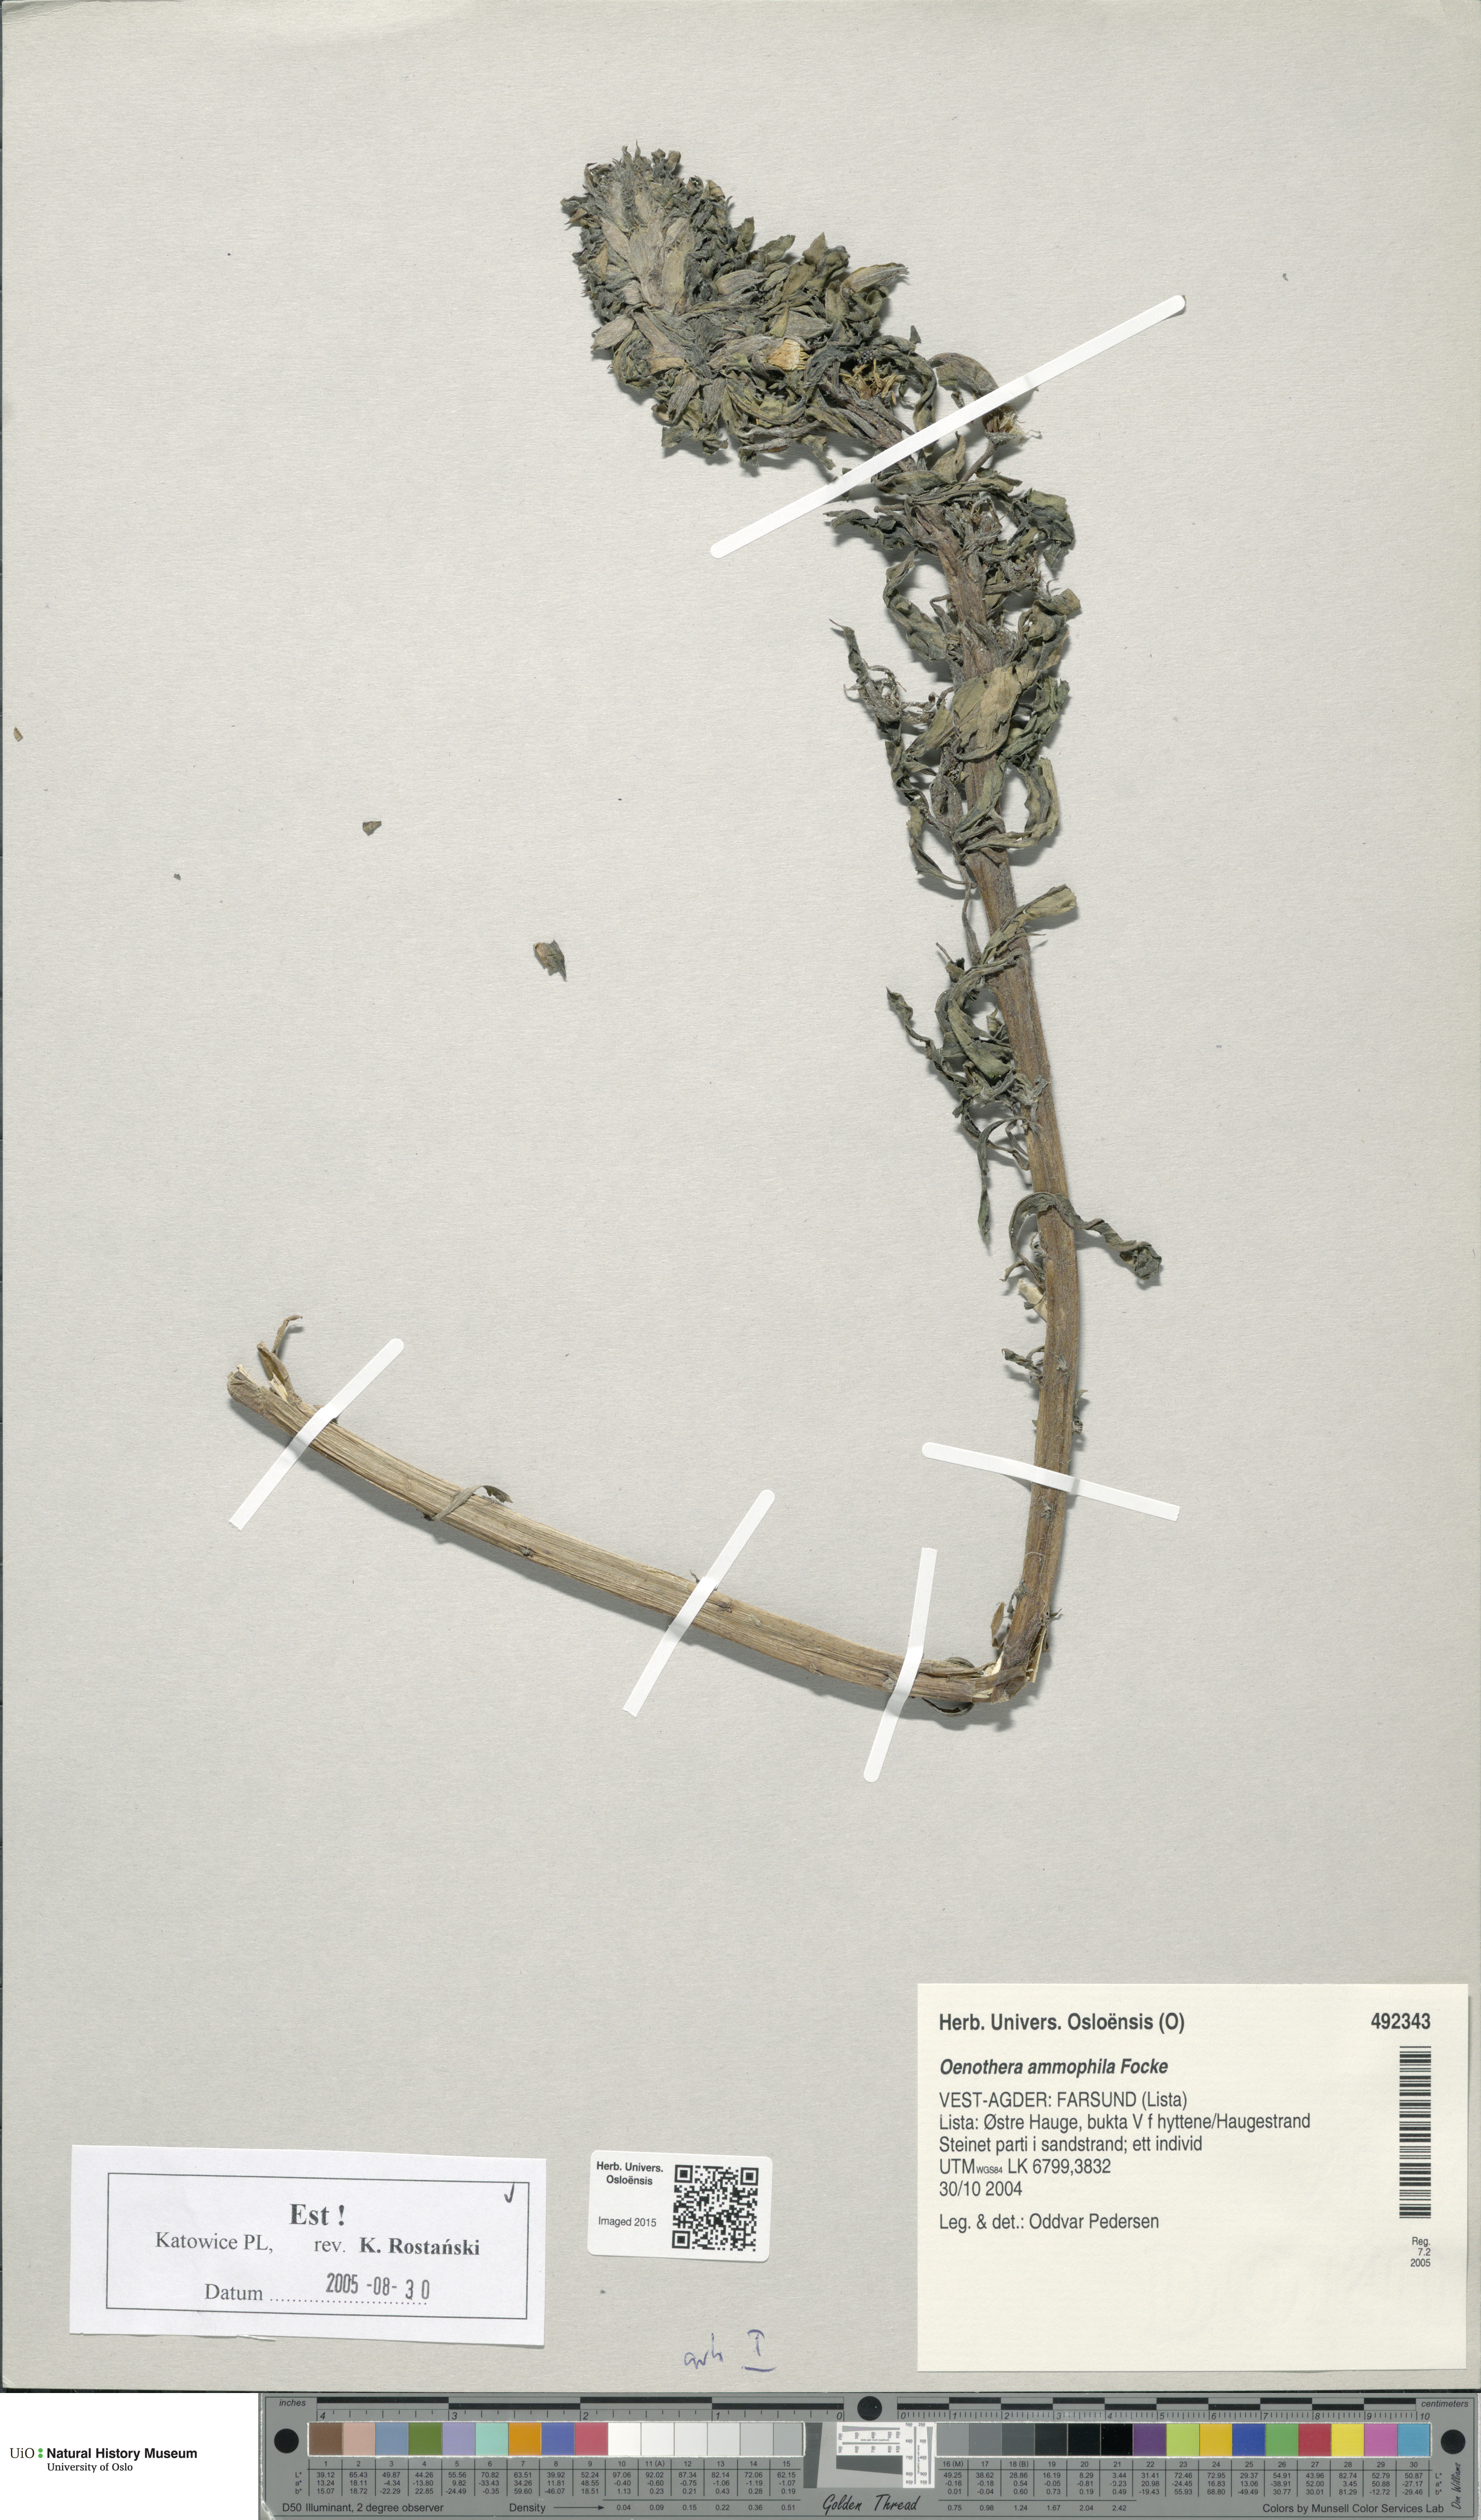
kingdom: Plantae
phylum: Tracheophyta
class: Magnoliopsida
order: Myrtales
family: Onagraceae
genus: Oenothera
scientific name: Oenothera ammophila
